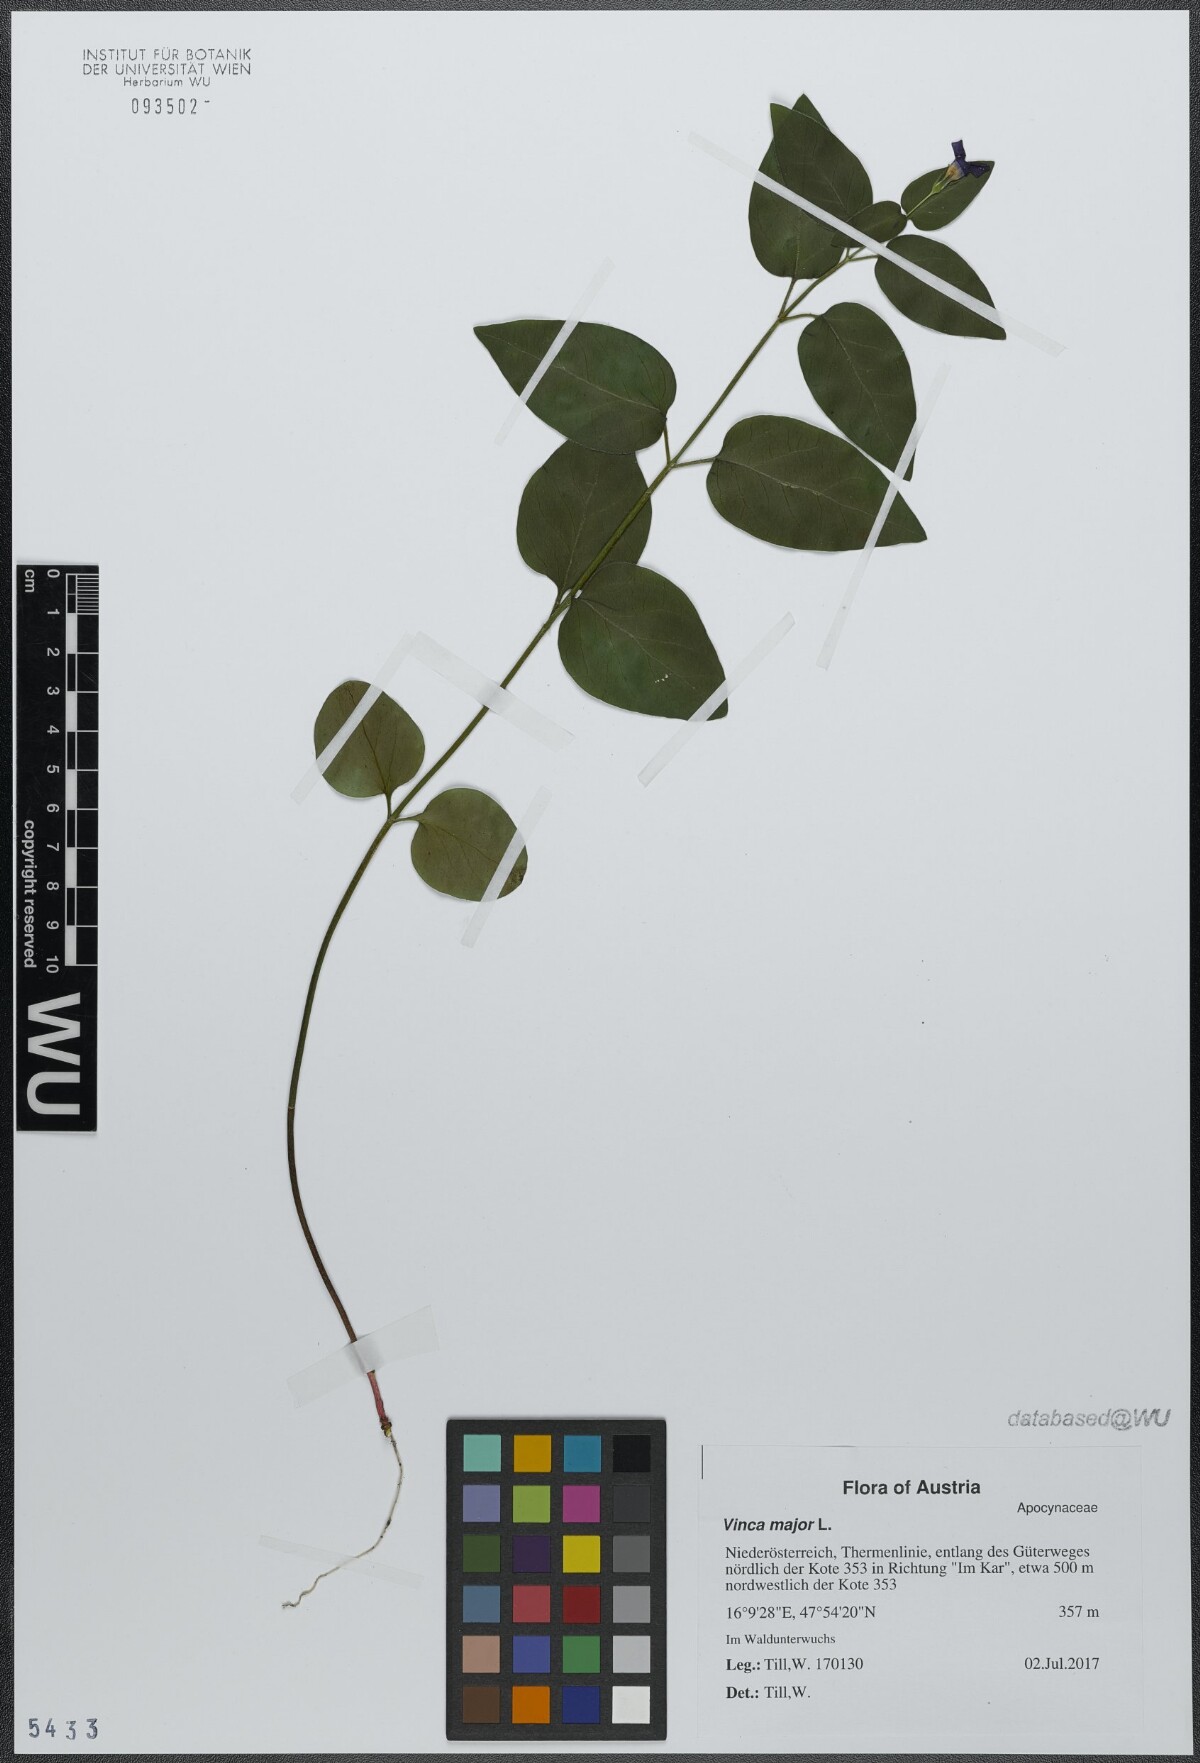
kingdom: Plantae
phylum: Tracheophyta
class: Magnoliopsida
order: Gentianales
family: Apocynaceae
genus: Vinca
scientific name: Vinca major
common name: Greater periwinkle
